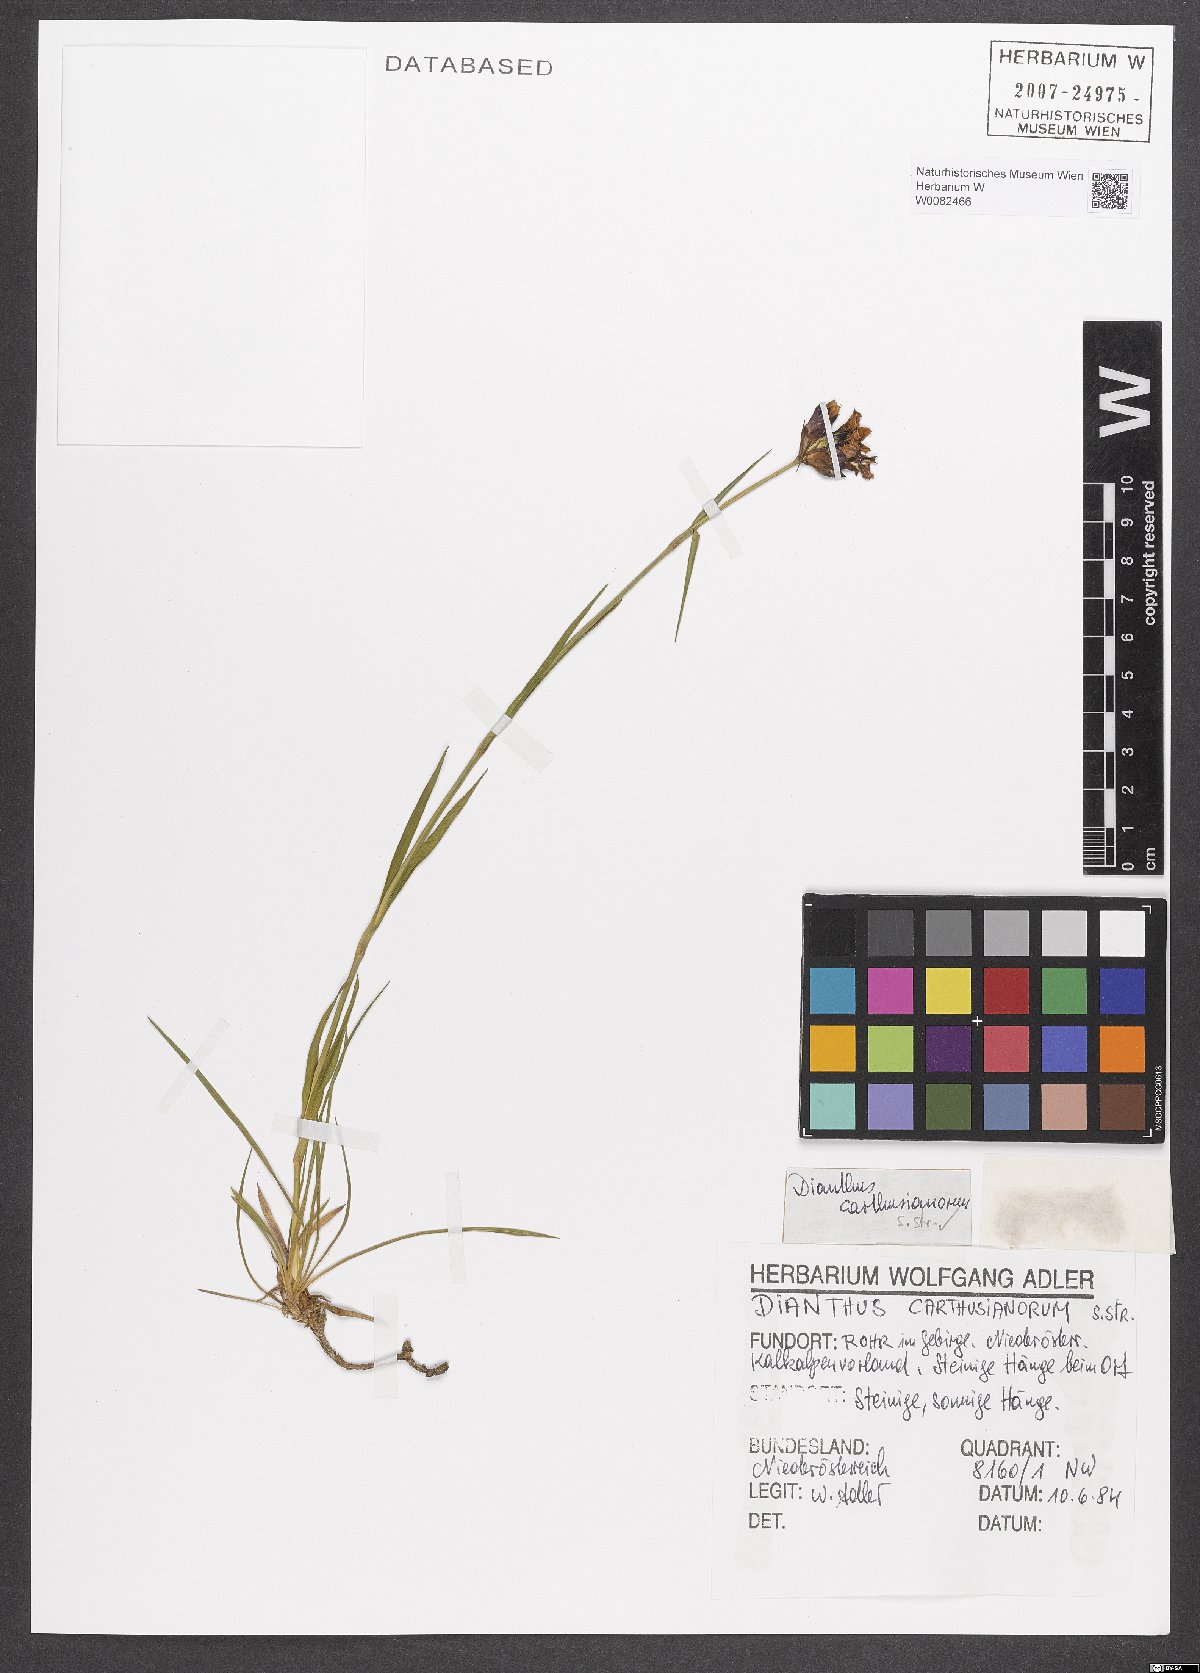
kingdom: Plantae
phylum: Tracheophyta
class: Magnoliopsida
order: Caryophyllales
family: Caryophyllaceae
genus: Dianthus
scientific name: Dianthus carthusianorum
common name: Carthusian pink
